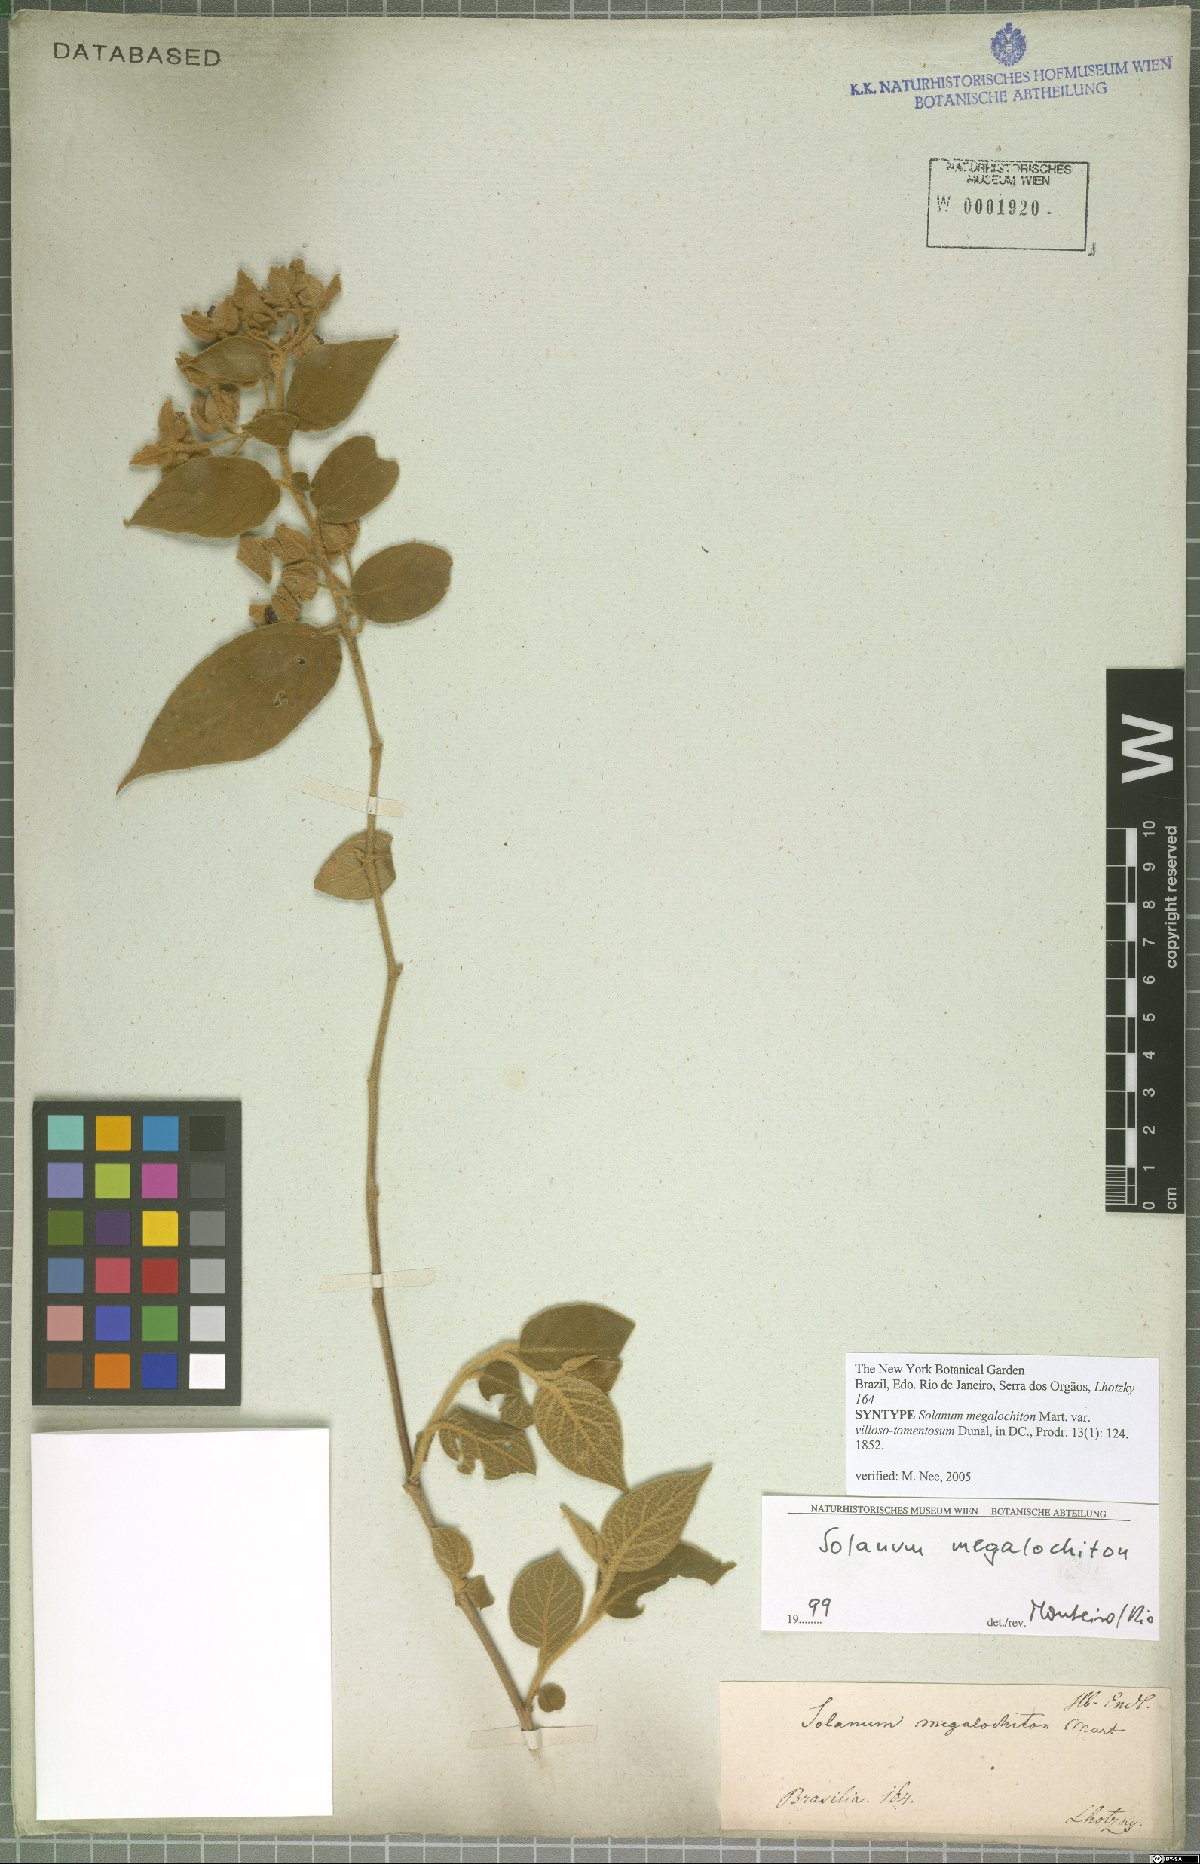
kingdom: Plantae
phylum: Tracheophyta
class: Magnoliopsida
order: Solanales
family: Solanaceae
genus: Solanum
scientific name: Solanum megalochiton
